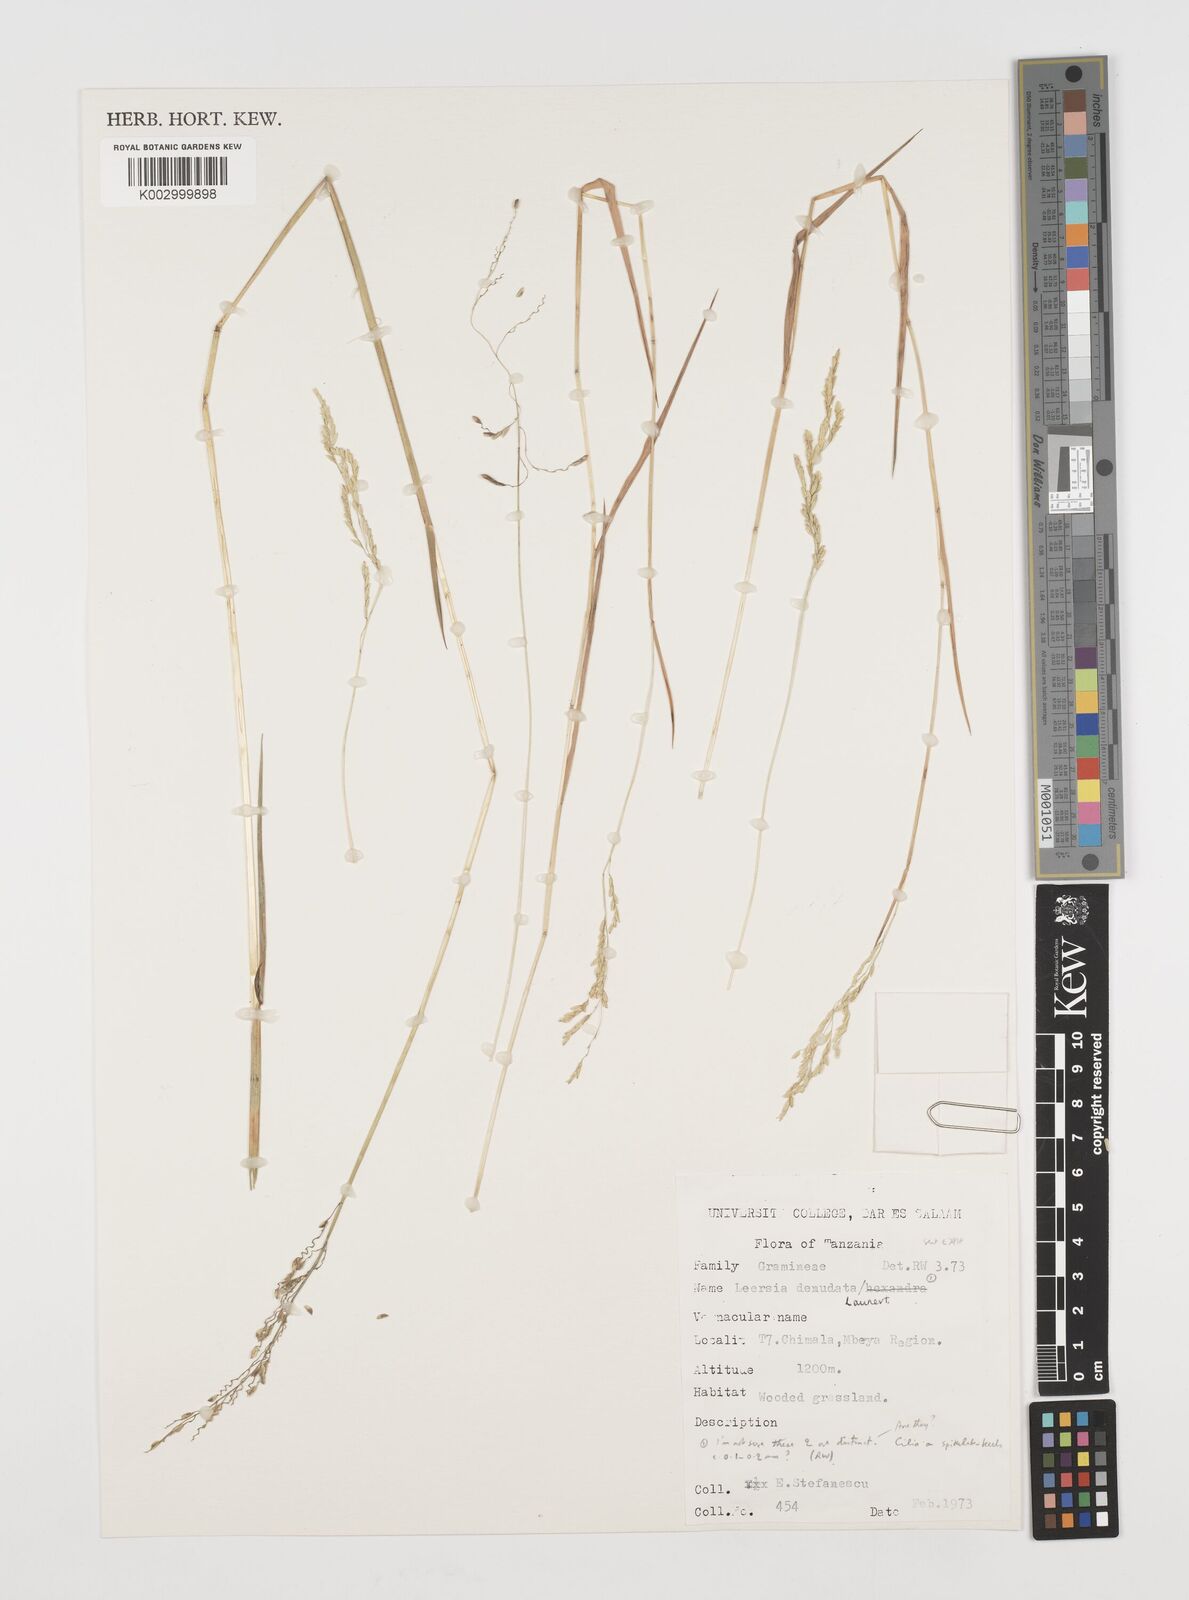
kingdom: Plantae
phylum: Tracheophyta
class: Liliopsida
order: Poales
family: Poaceae
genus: Leersia
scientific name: Leersia denudata
